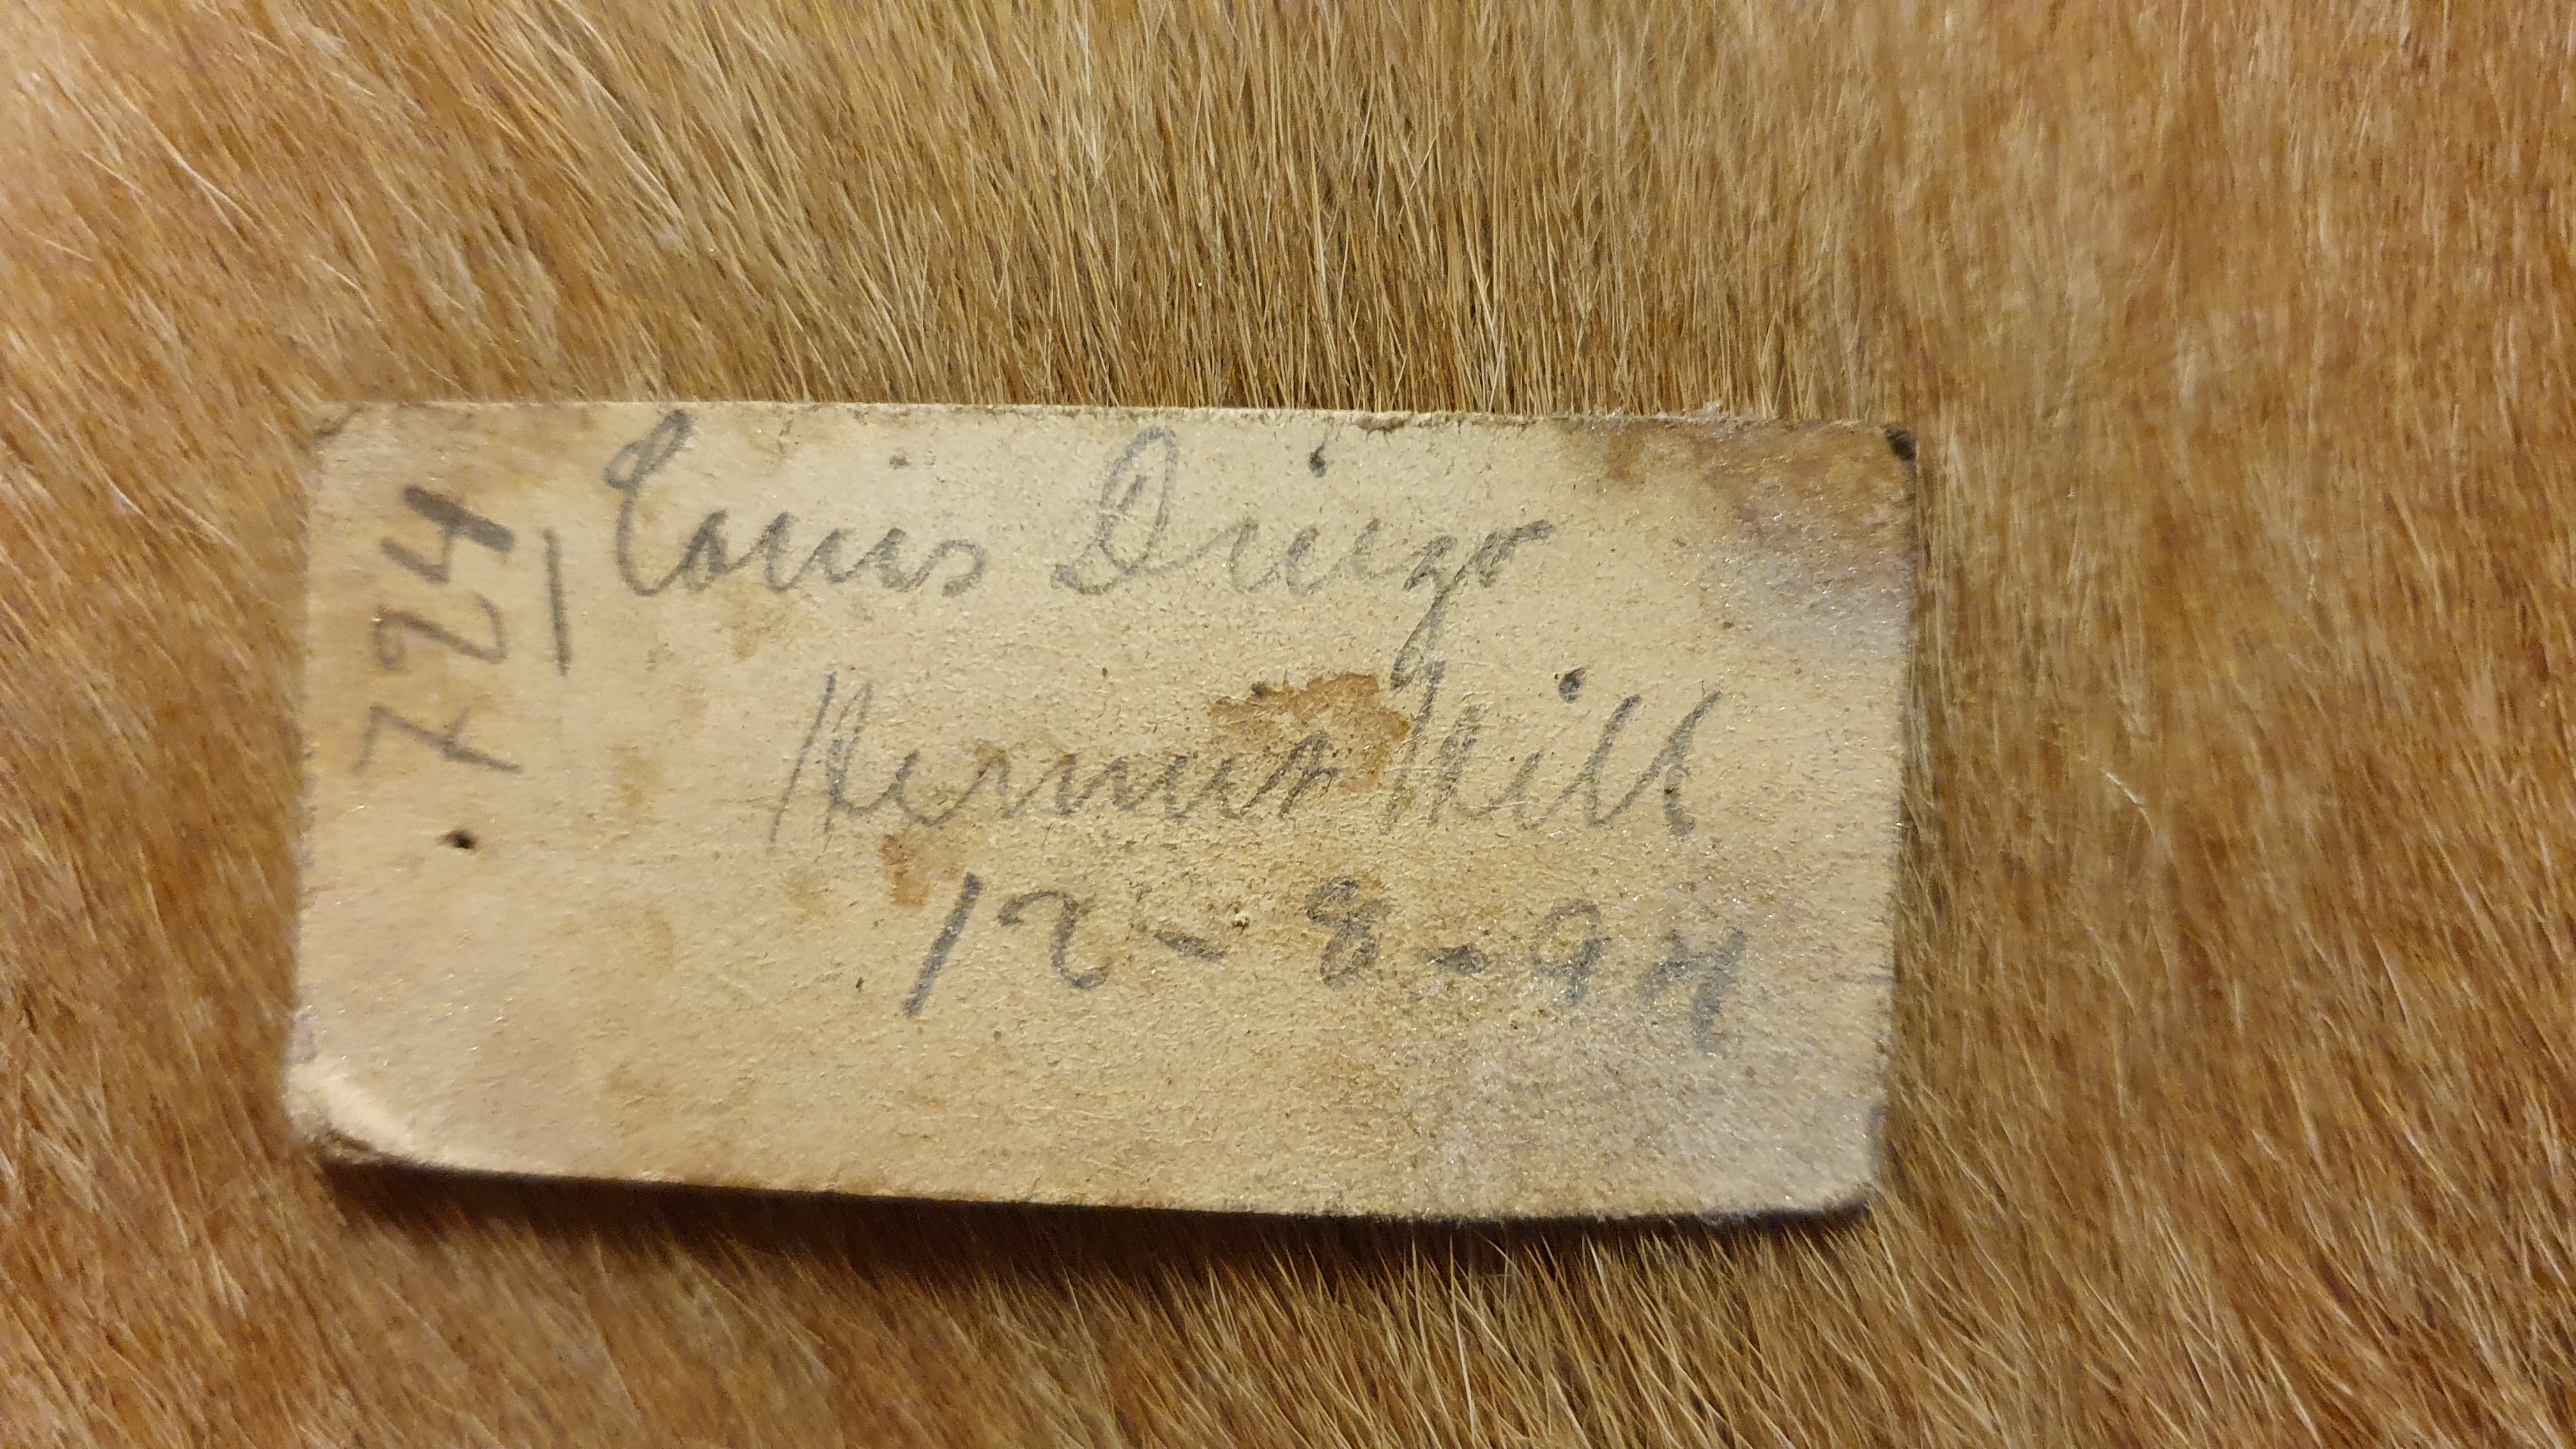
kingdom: Animalia
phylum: Chordata
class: Mammalia
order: Carnivora
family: Canidae
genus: Canis
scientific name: Canis lupus
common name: Gray wolf
